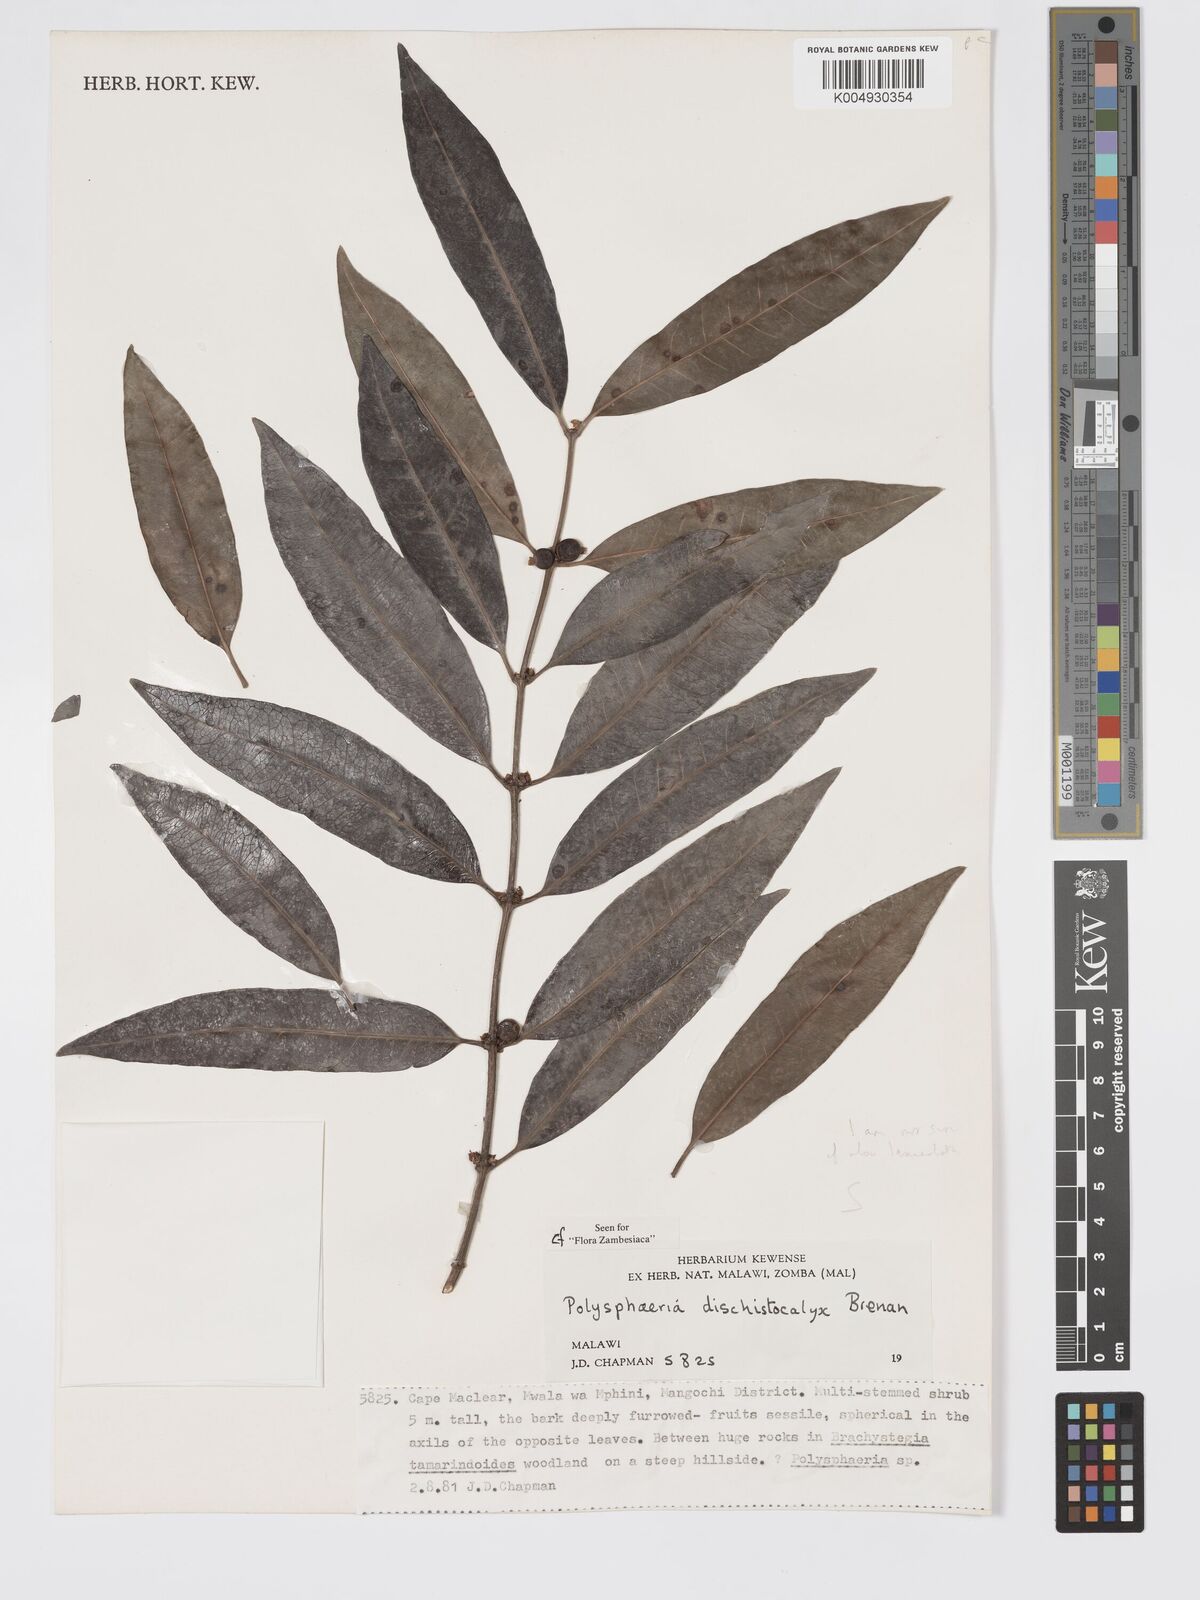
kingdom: Plantae
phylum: Tracheophyta
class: Magnoliopsida
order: Gentianales
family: Rubiaceae
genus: Polysphaeria
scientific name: Polysphaeria dischistocalyx
